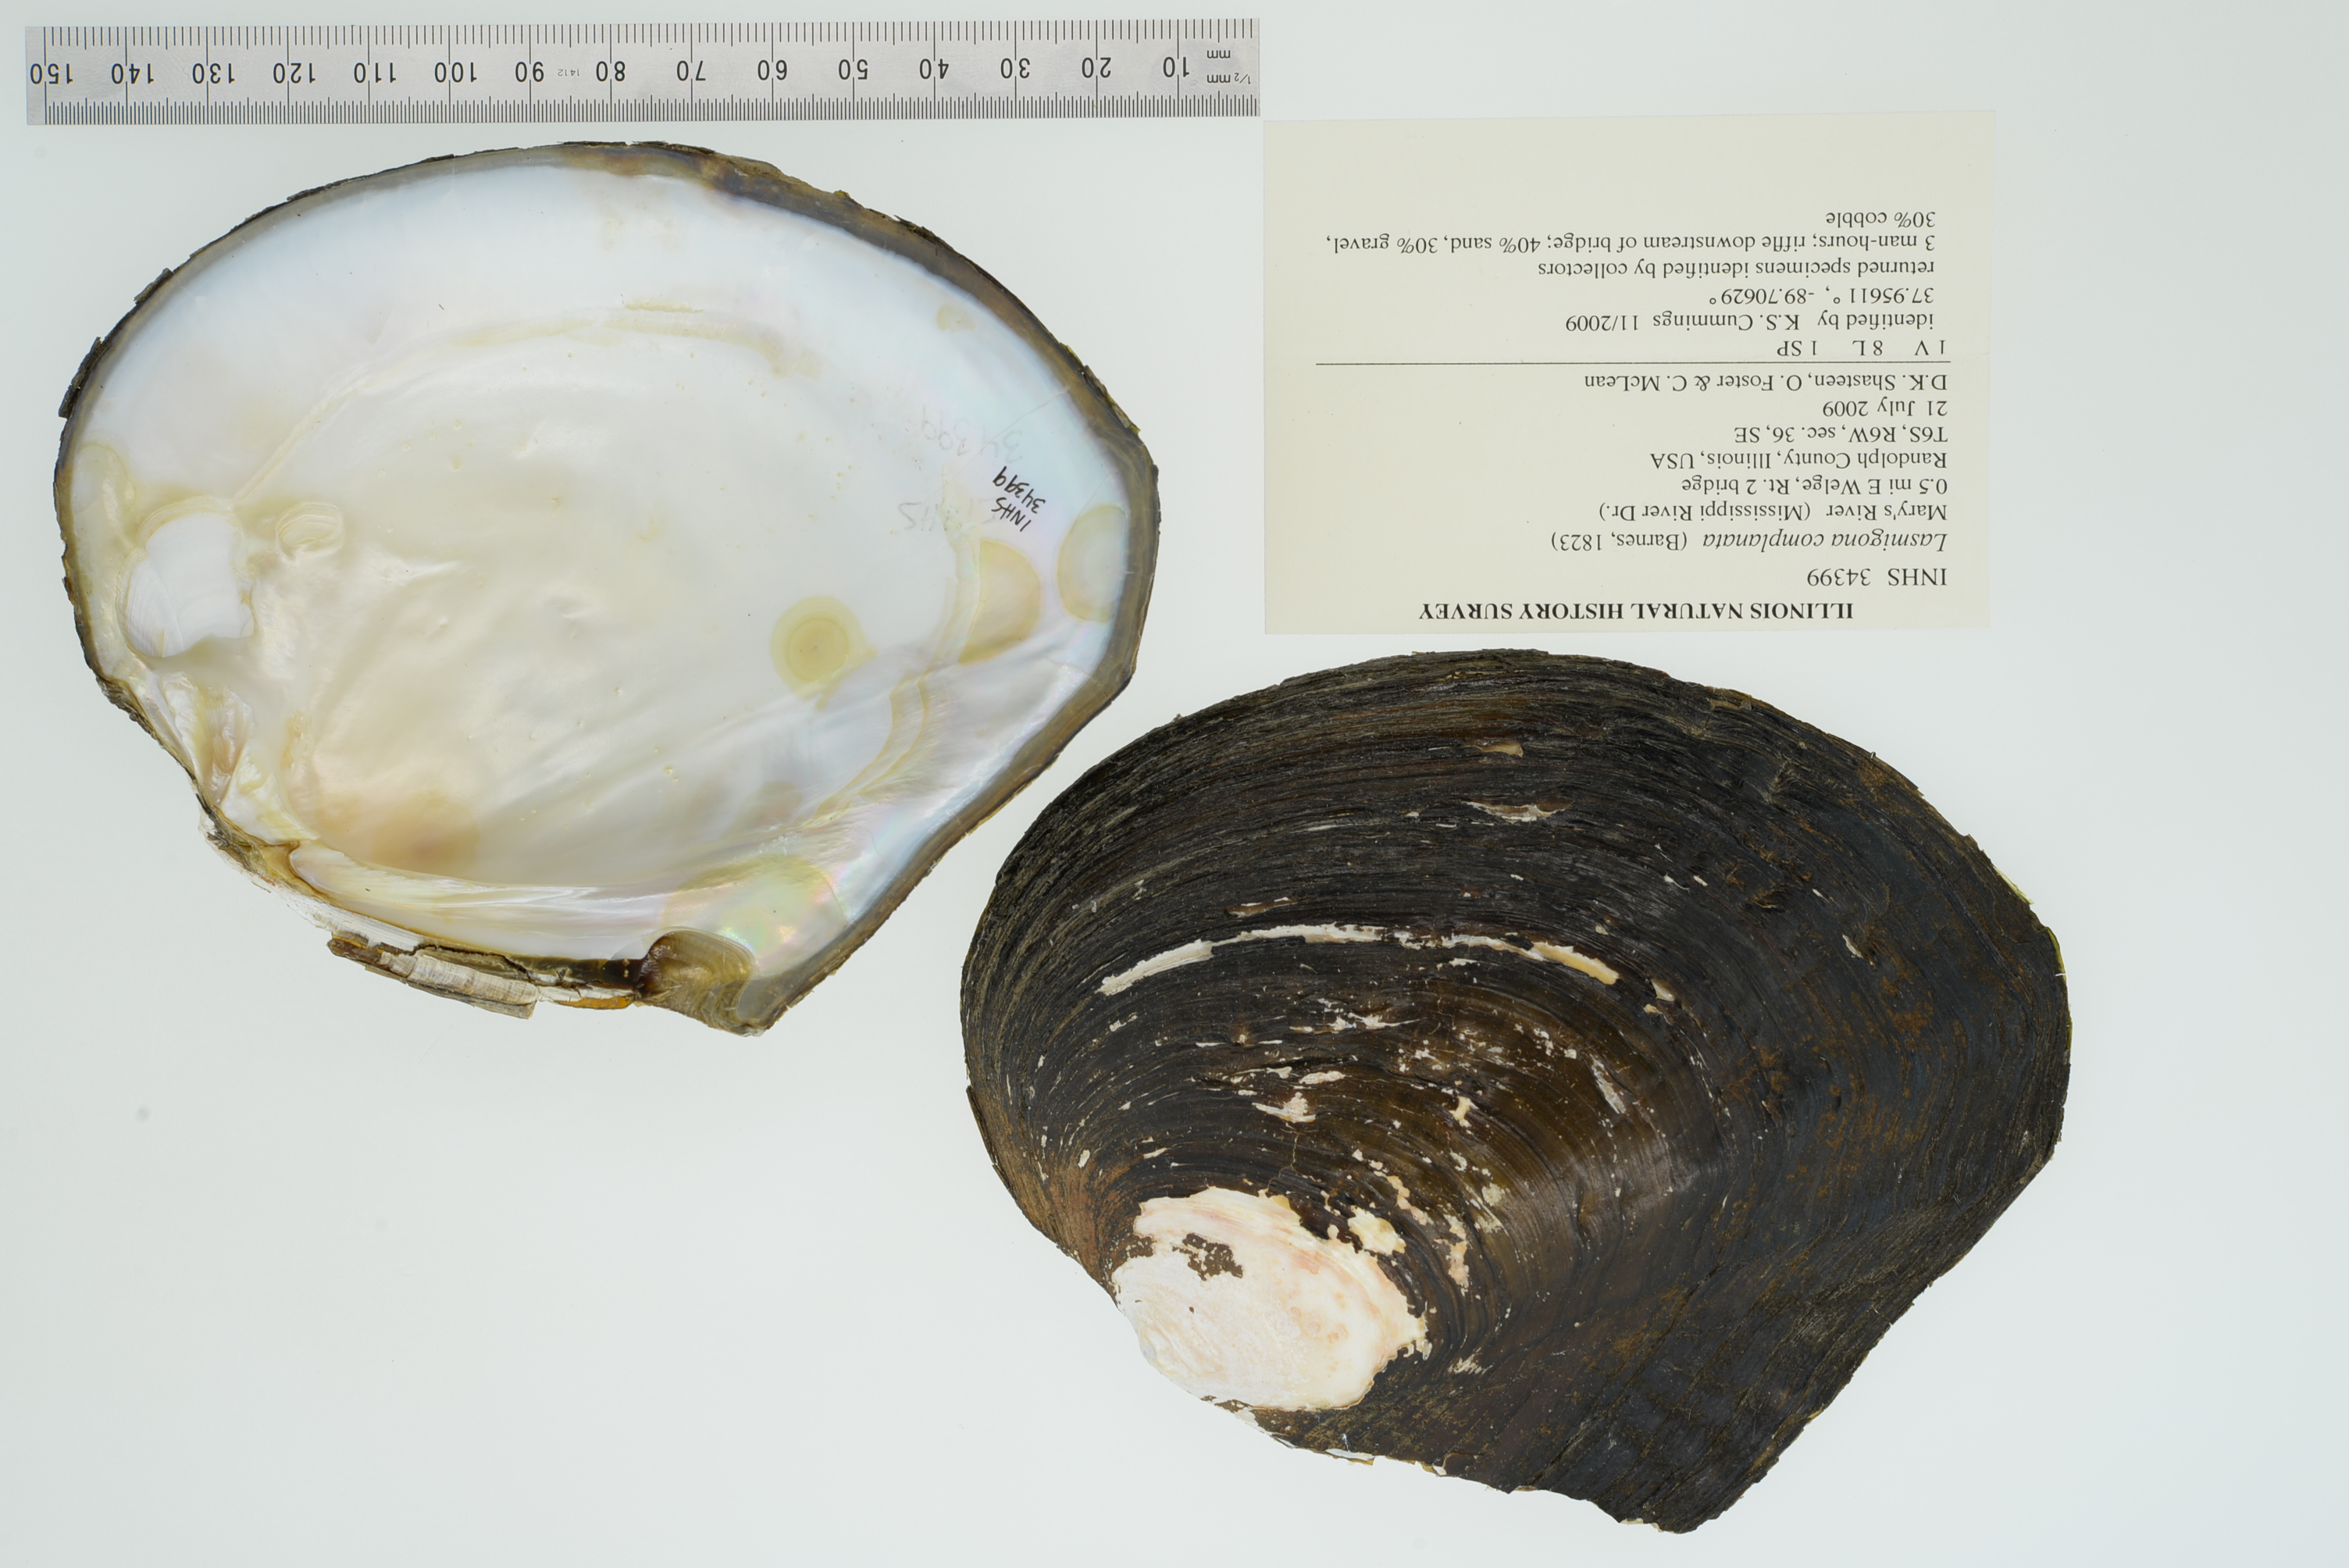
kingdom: Animalia
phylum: Mollusca
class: Bivalvia
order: Unionida
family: Unionidae
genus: Lasmigona
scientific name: Lasmigona complanata
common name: White heelsplitter
